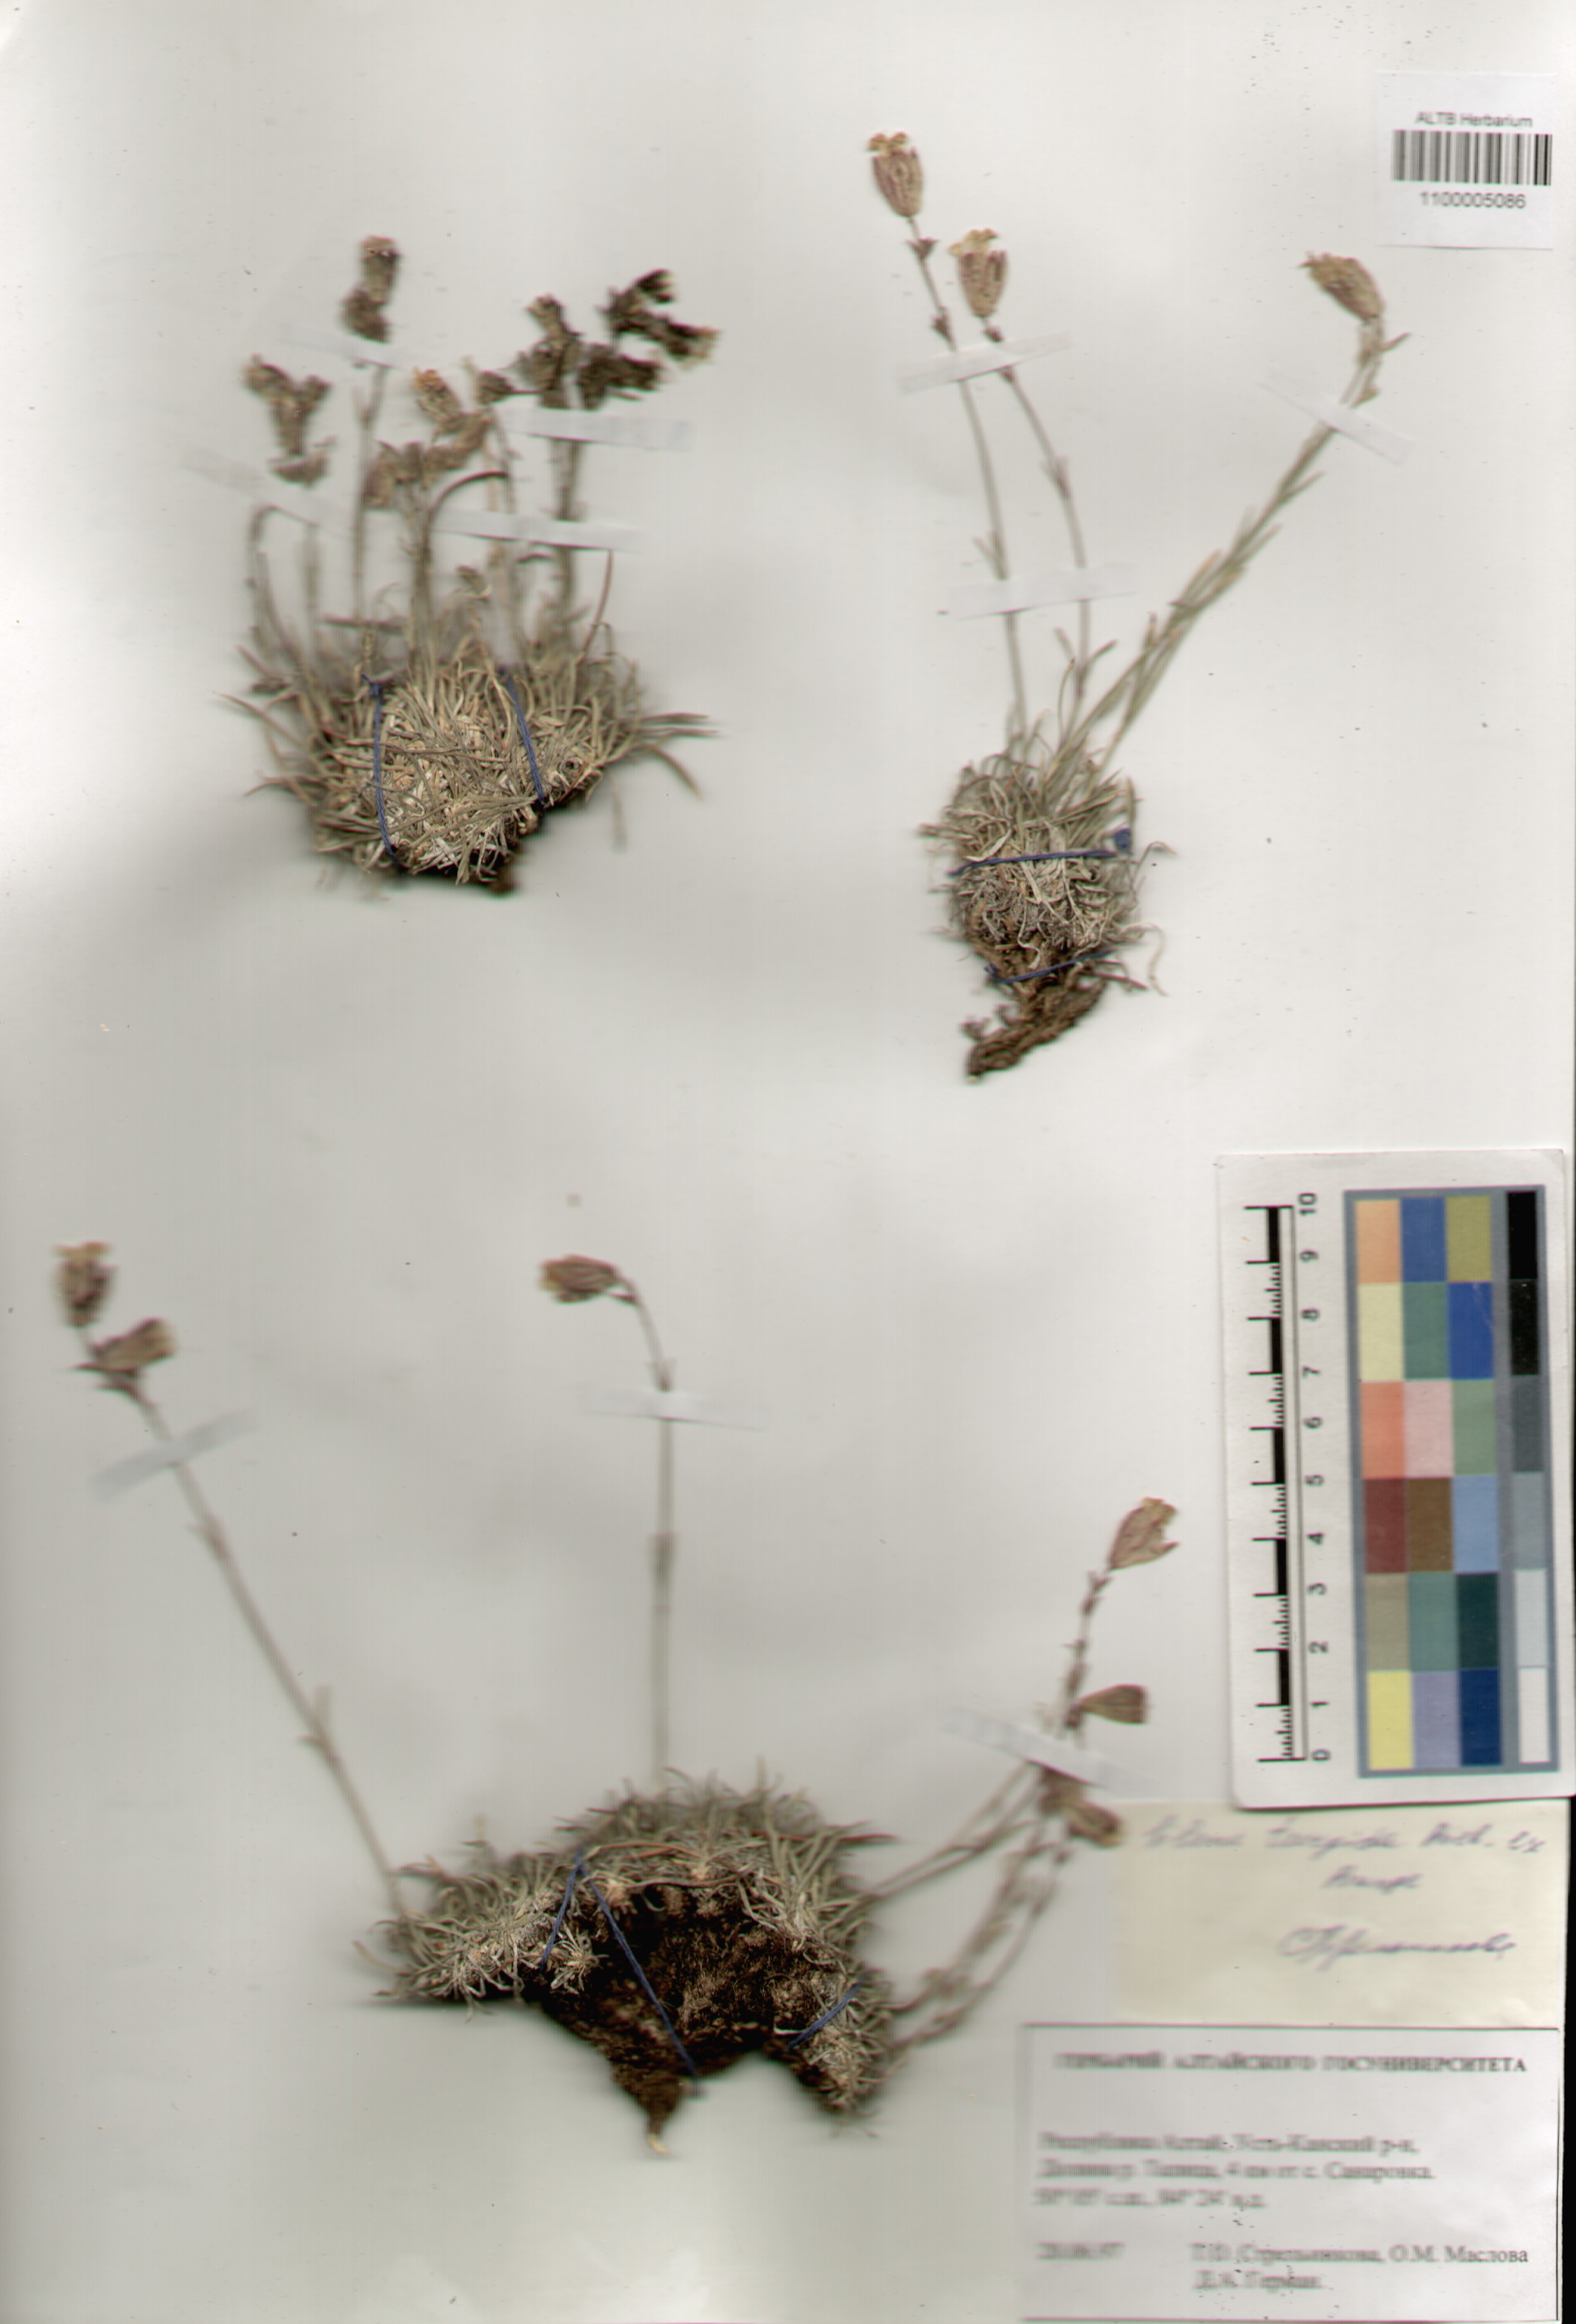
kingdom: Plantae
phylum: Tracheophyta
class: Magnoliopsida
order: Caryophyllales
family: Caryophyllaceae
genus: Silene
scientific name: Silene turgida
